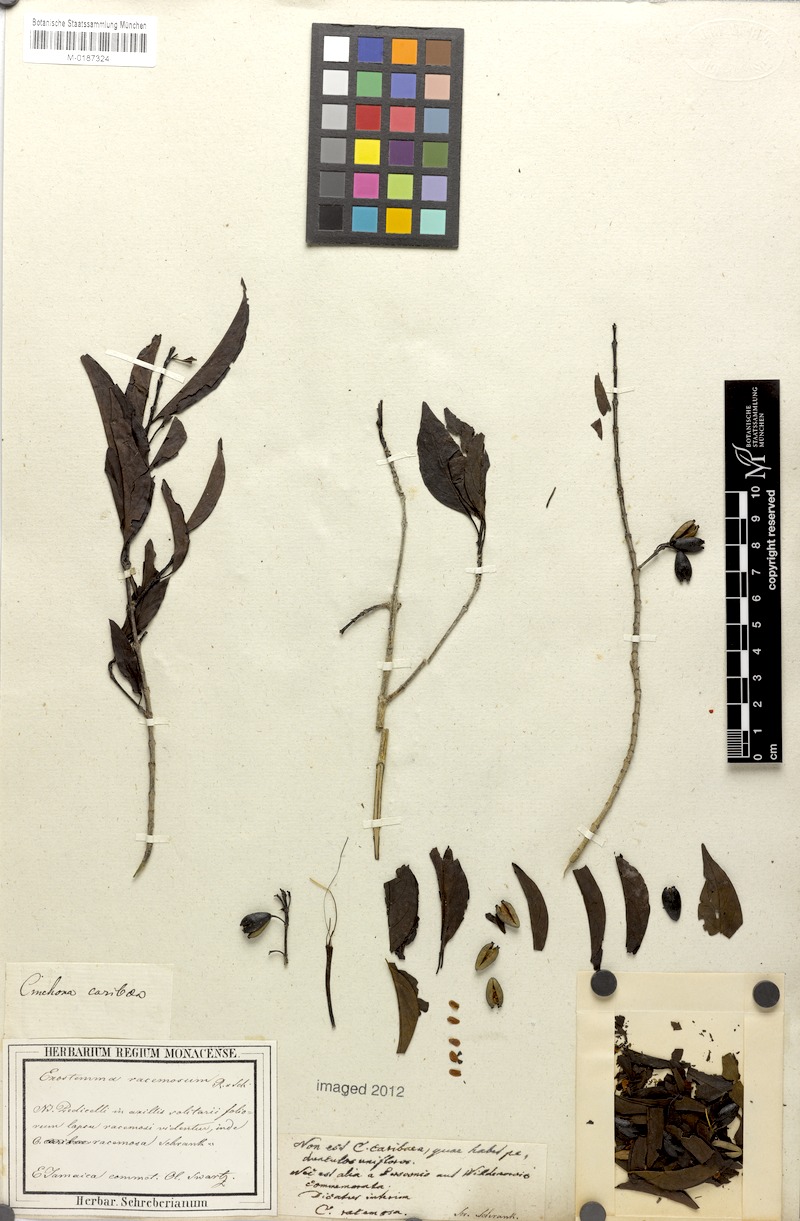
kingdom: Plantae
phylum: Tracheophyta
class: Magnoliopsida
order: Gentianales
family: Rubiaceae
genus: Exostema
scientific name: Exostema caribaeum
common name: Princewood
